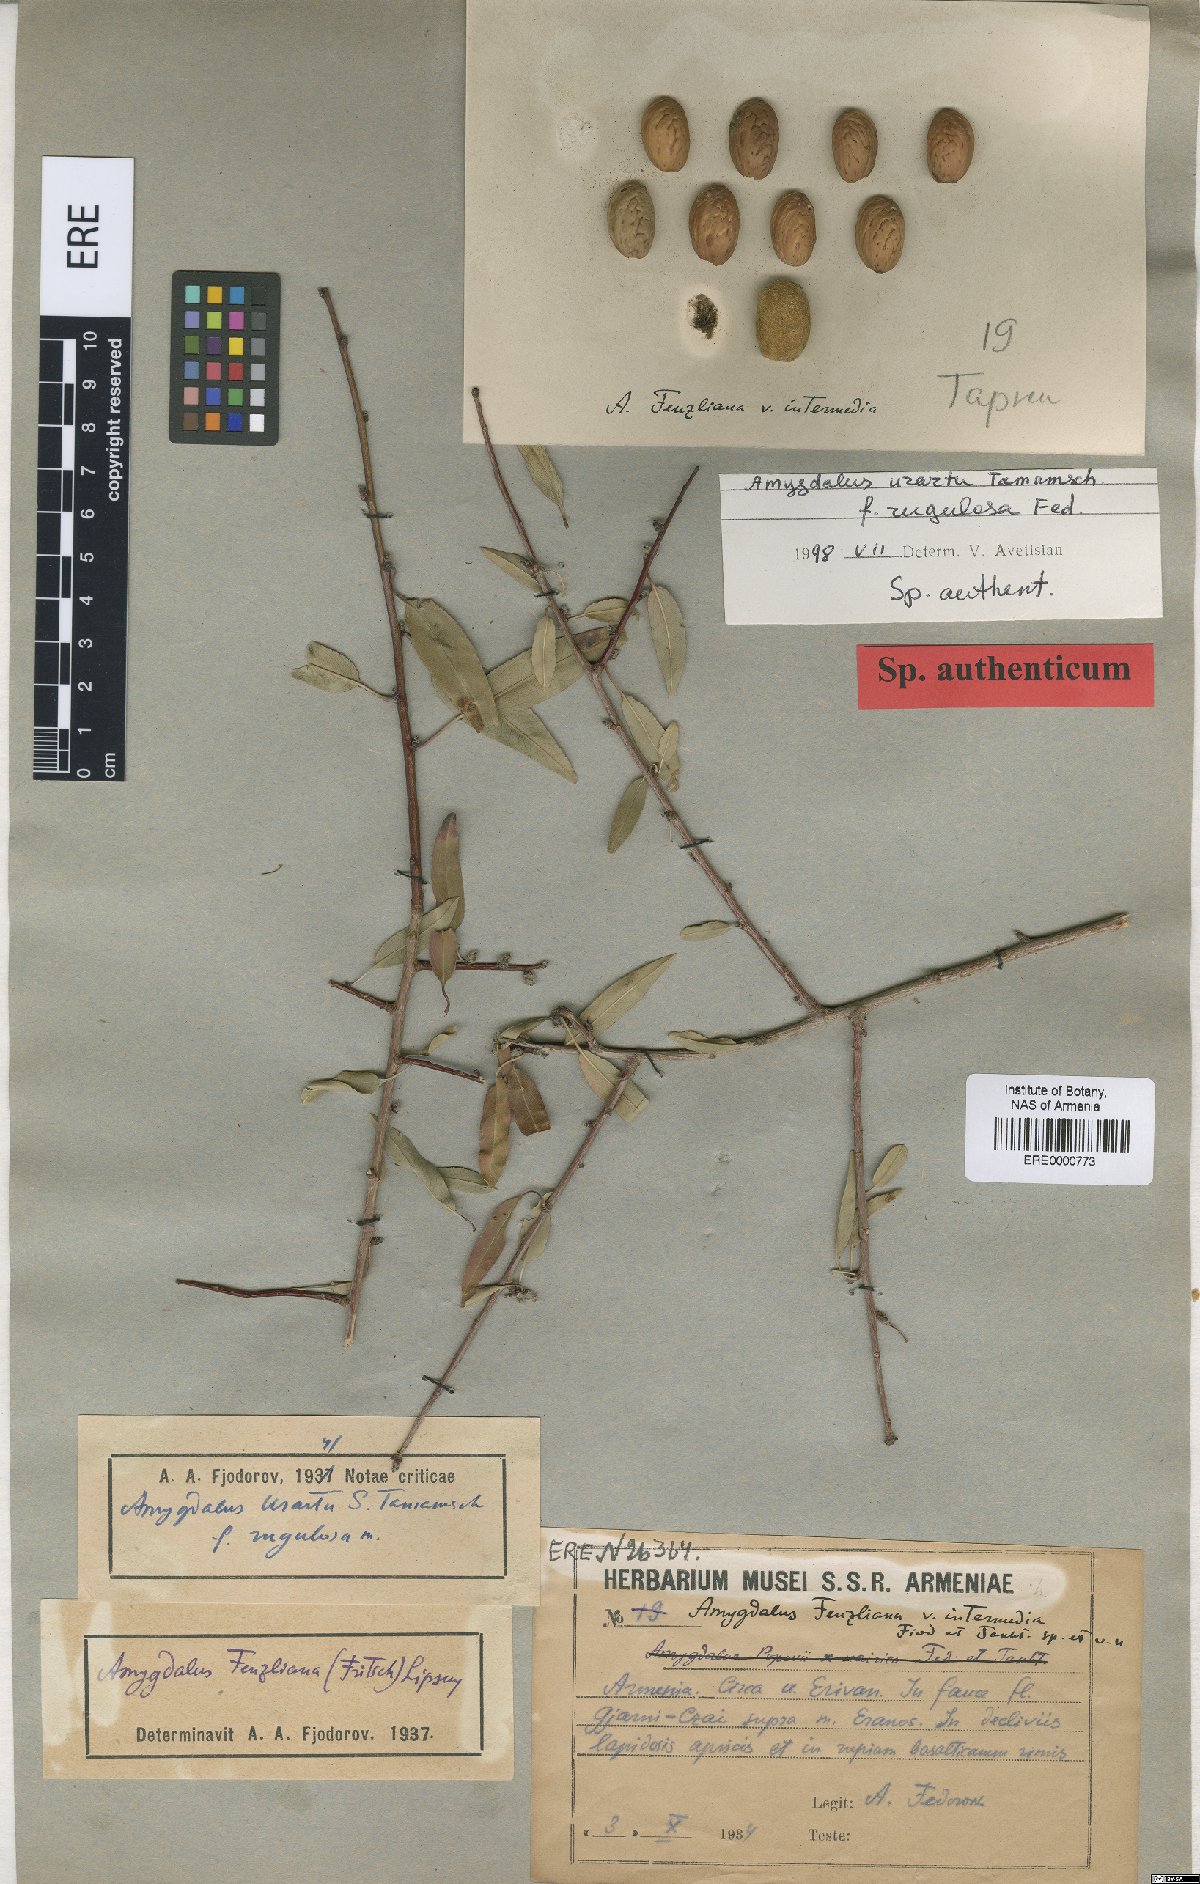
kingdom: Plantae
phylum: Tracheophyta
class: Magnoliopsida
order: Rosales
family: Rosaceae
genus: Prunus
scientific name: Prunus urartu
